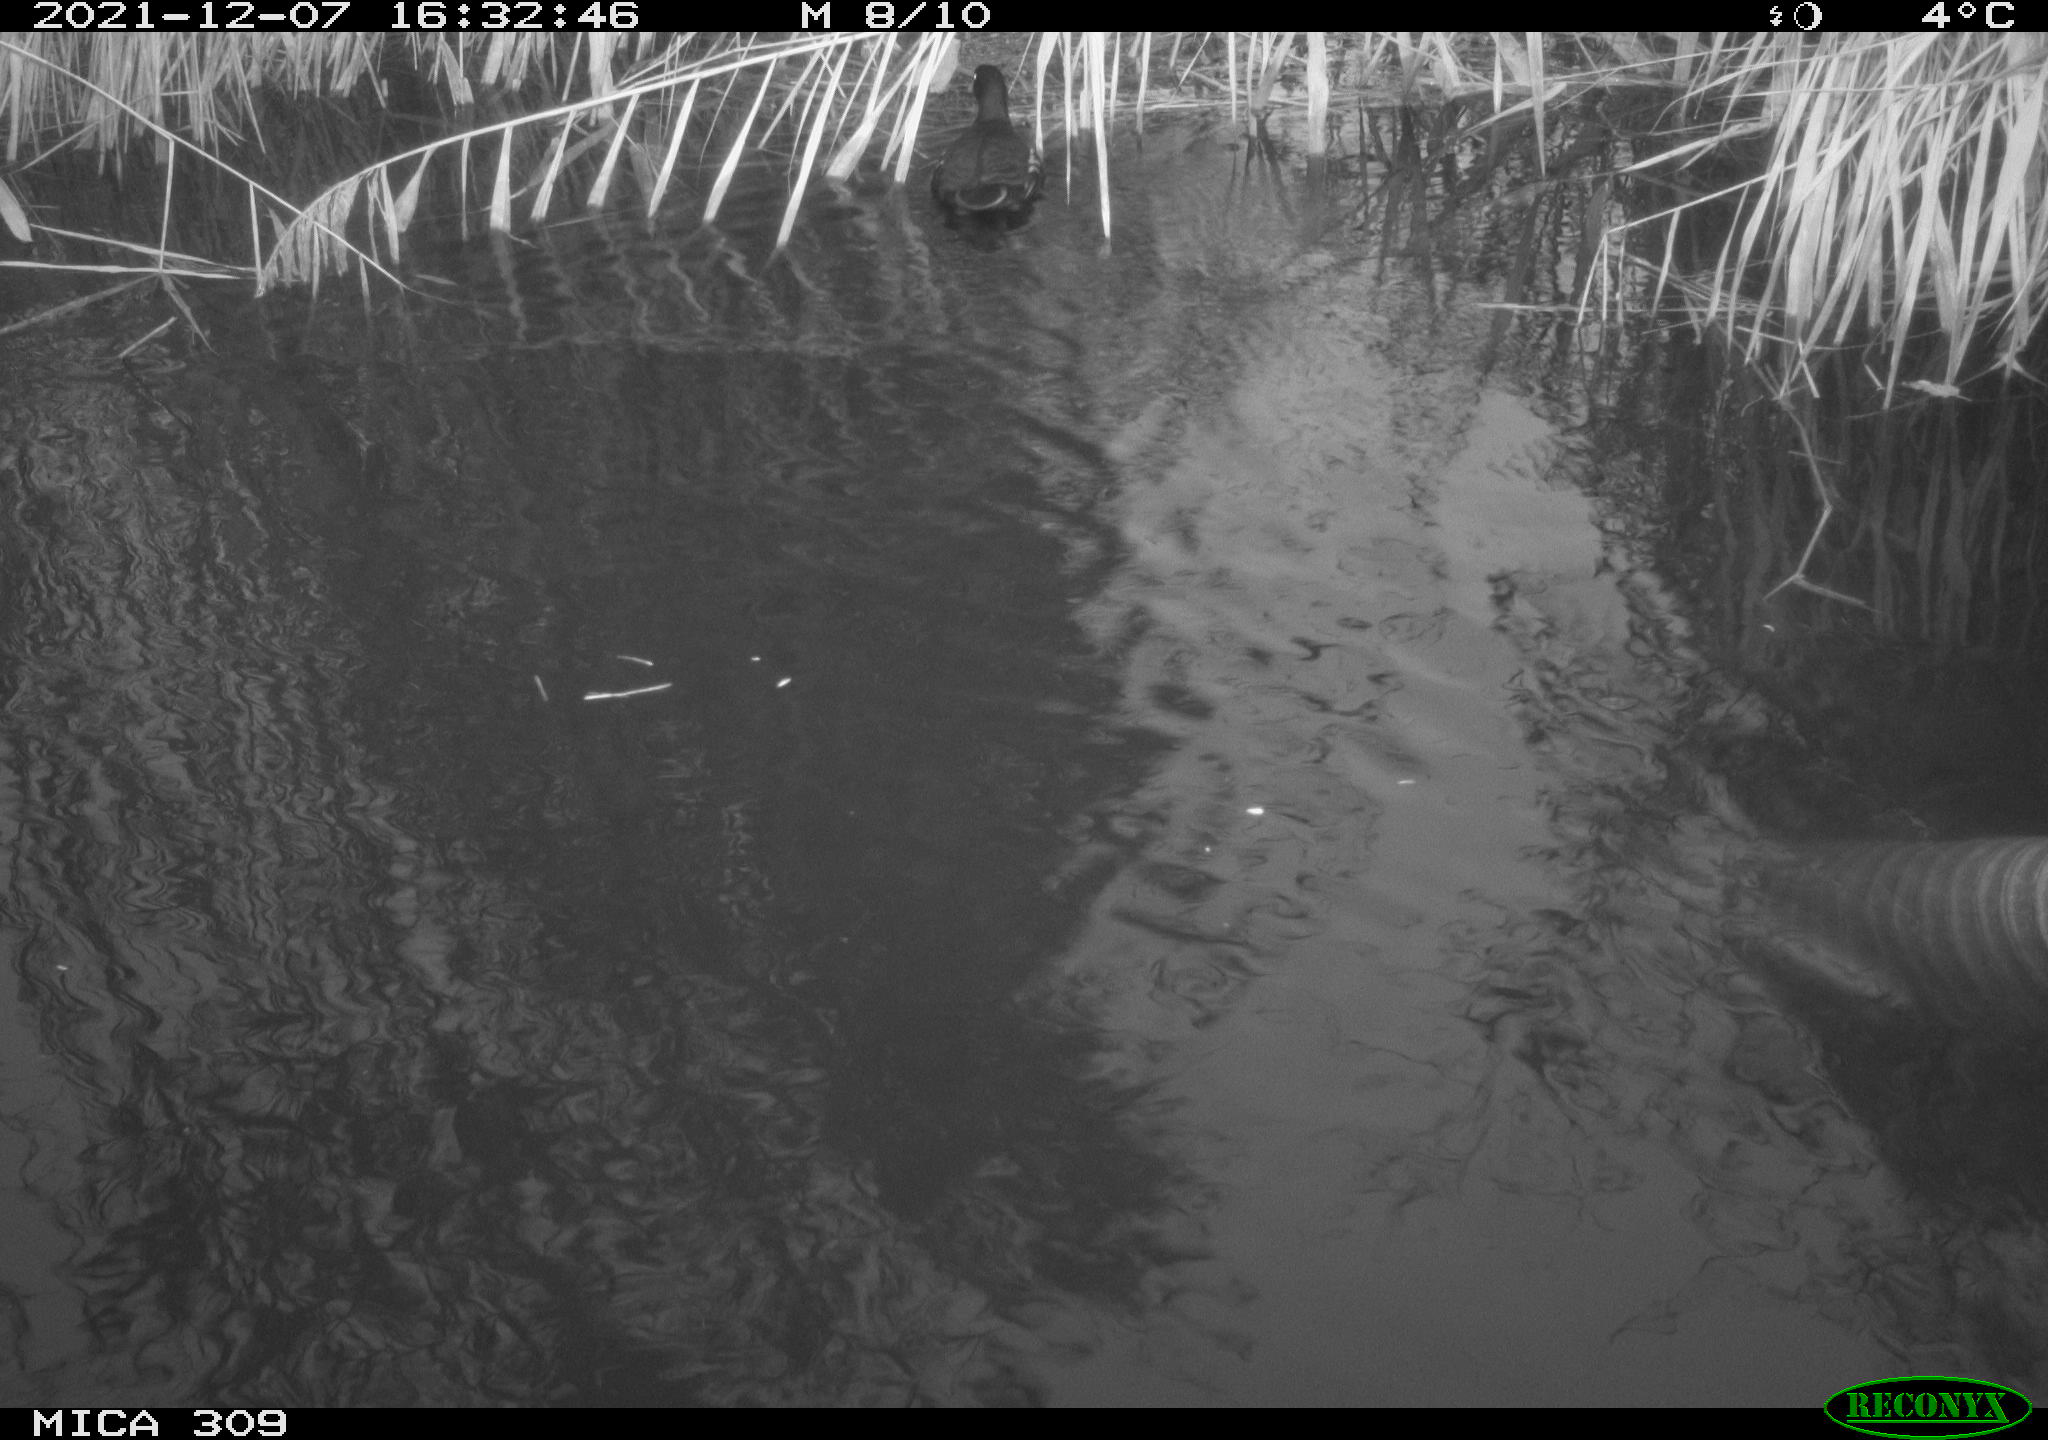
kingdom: Animalia
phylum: Chordata
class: Aves
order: Gruiformes
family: Rallidae
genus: Gallinula
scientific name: Gallinula chloropus
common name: Common moorhen
